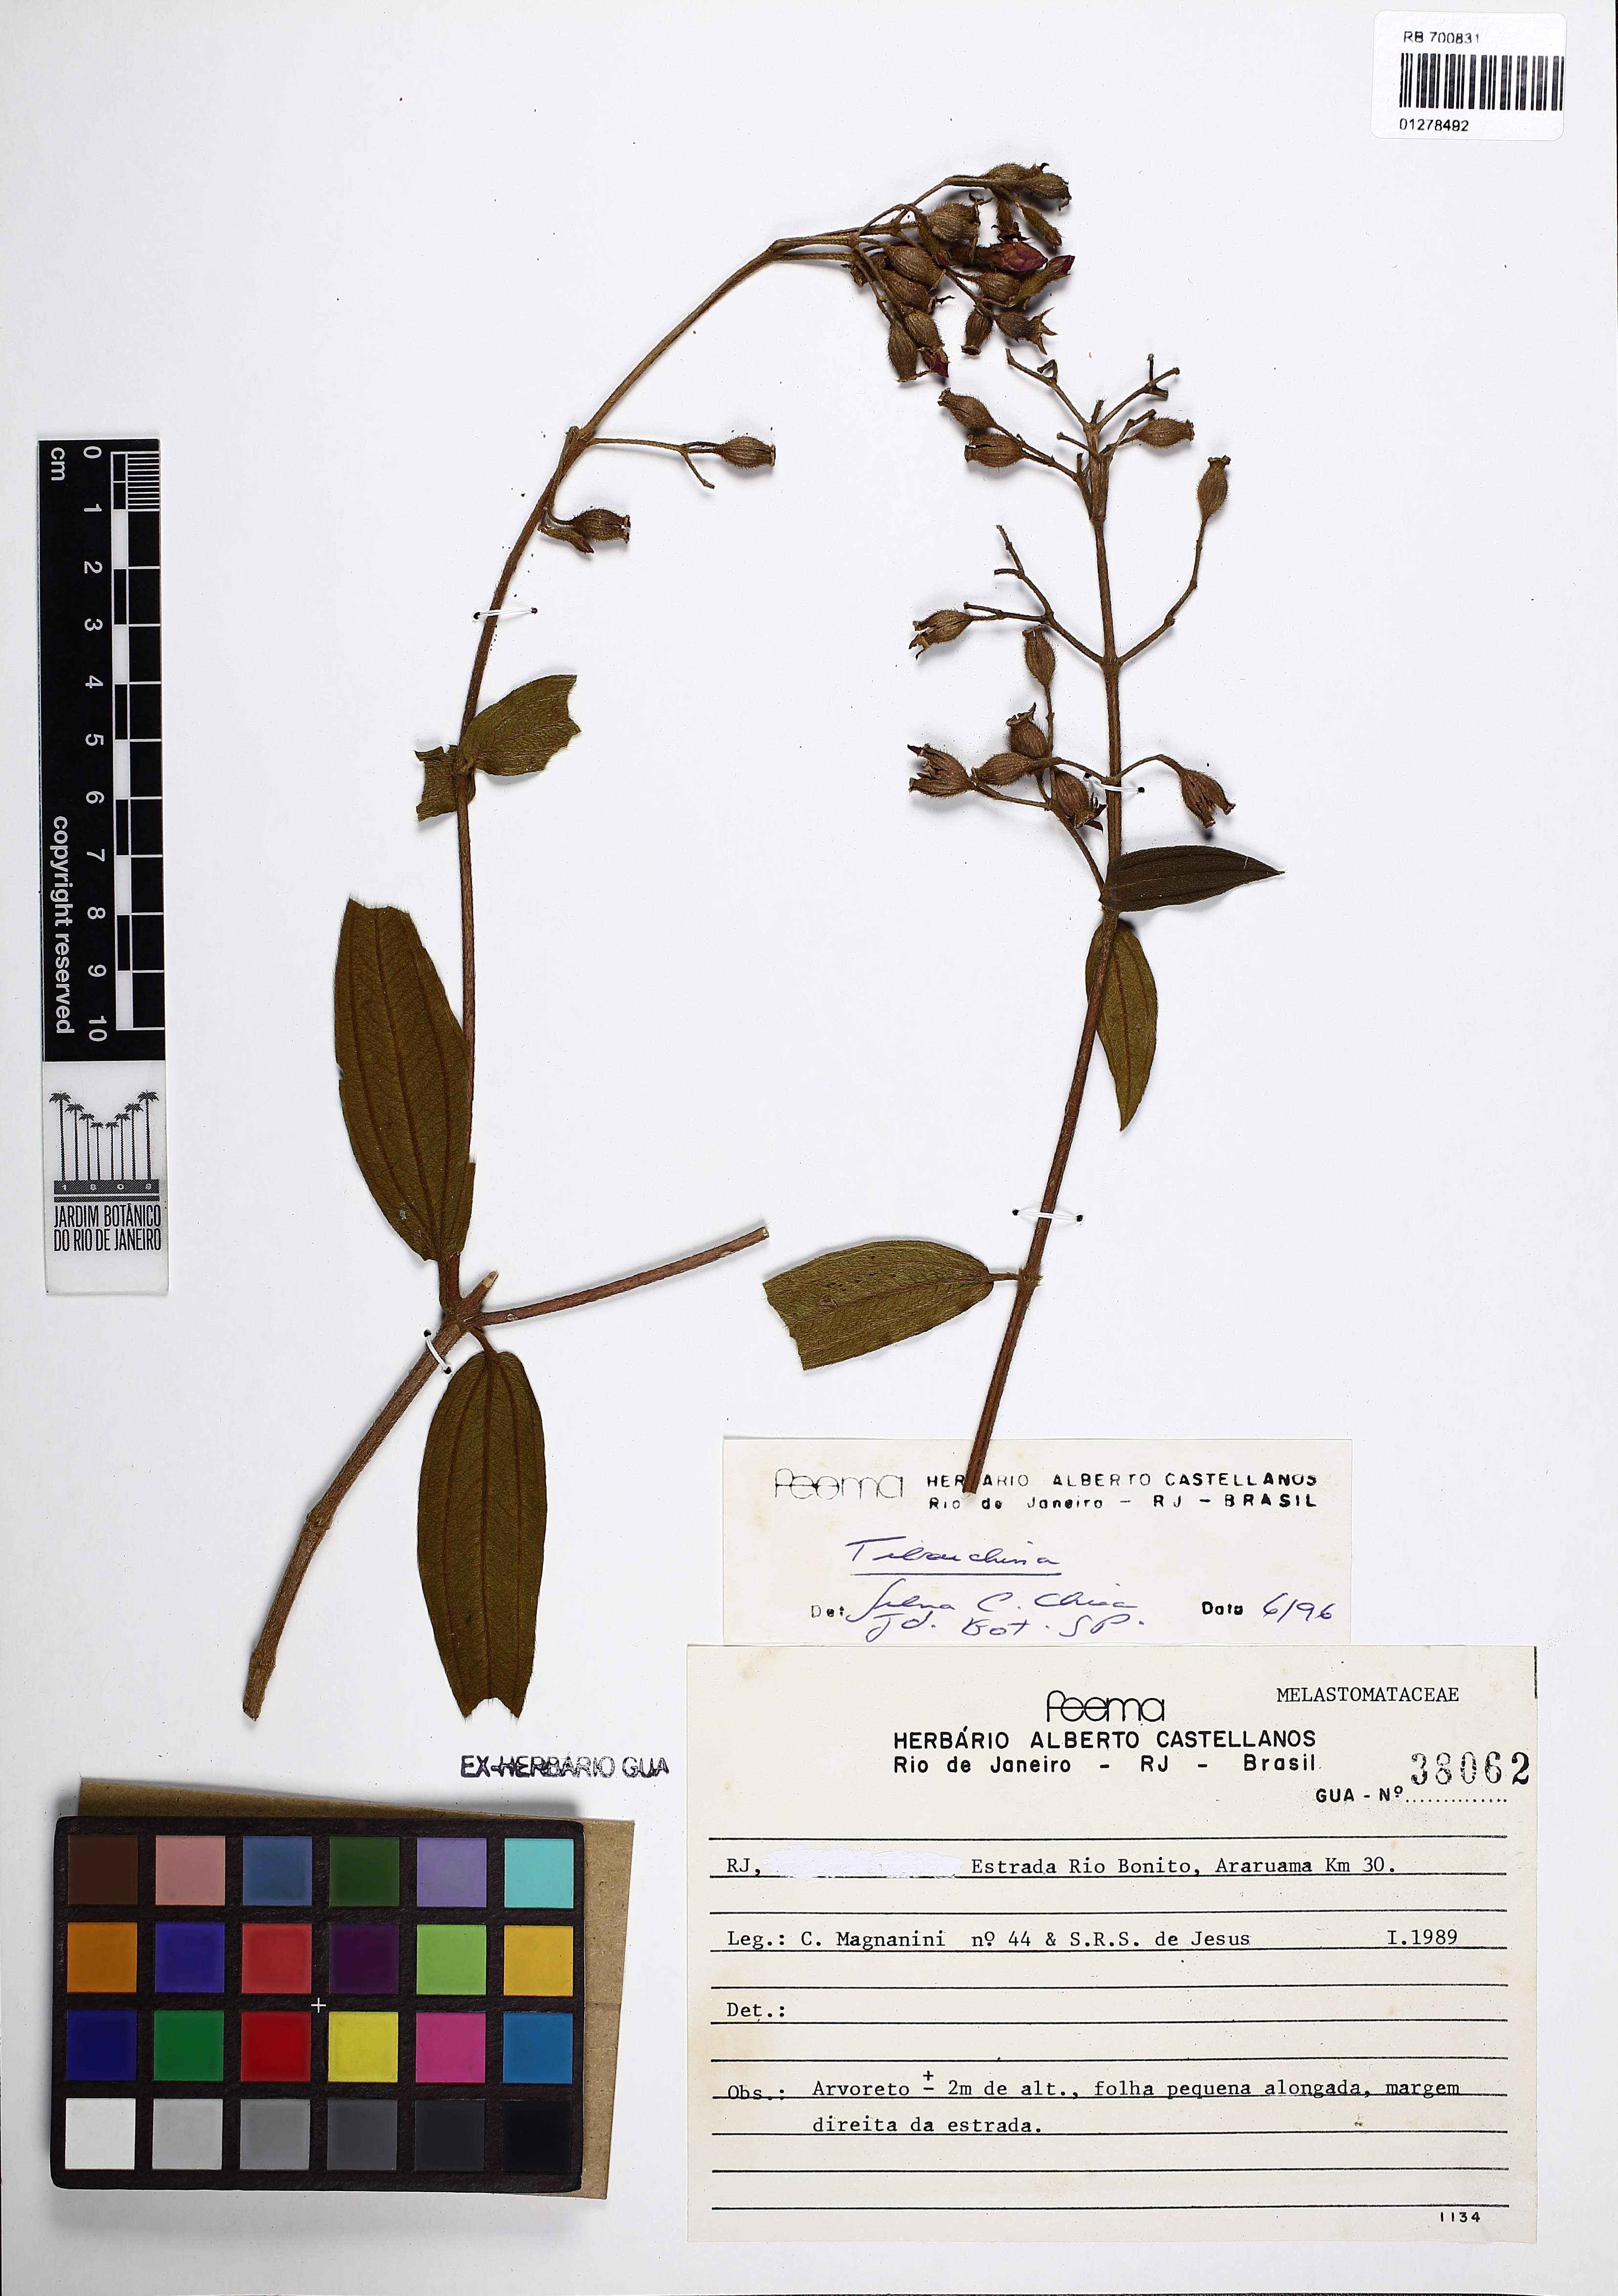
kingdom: Plantae
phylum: Tracheophyta
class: Magnoliopsida
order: Myrtales
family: Melastomataceae
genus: Tibouchina
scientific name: Tibouchina
